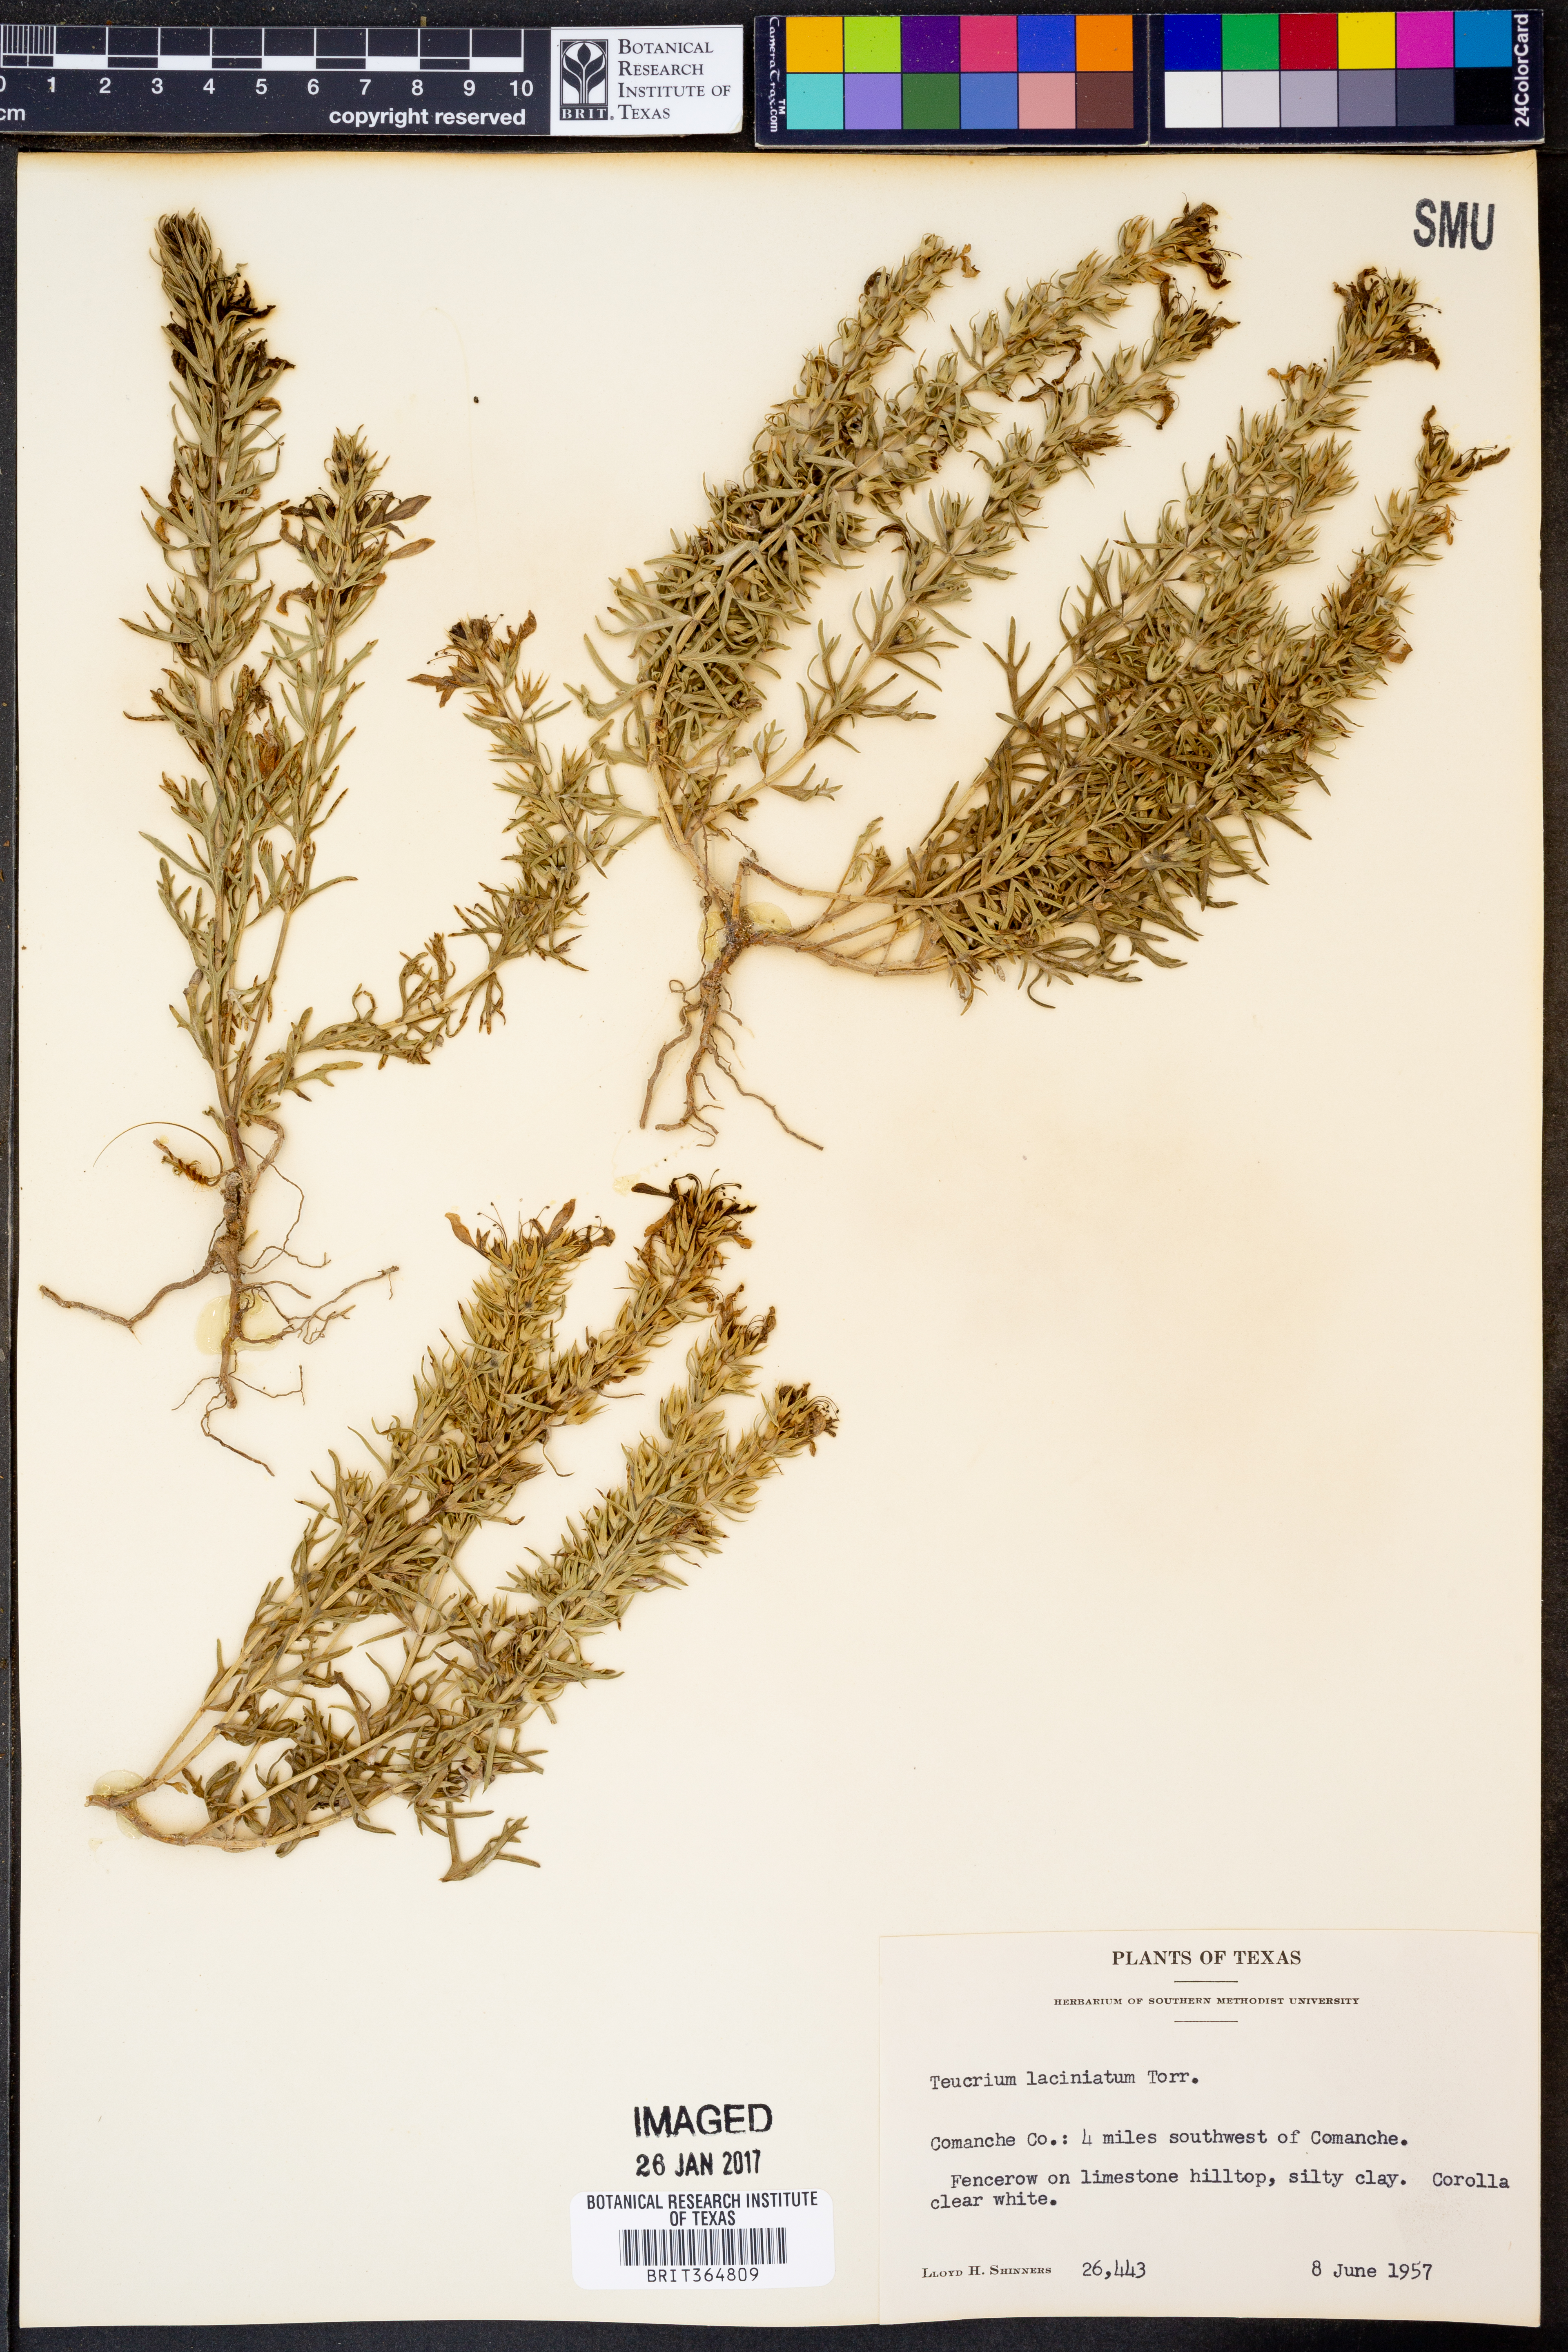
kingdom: Plantae
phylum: Tracheophyta
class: Magnoliopsida
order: Lamiales
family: Lamiaceae
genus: Teucrium
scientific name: Teucrium laciniatum
